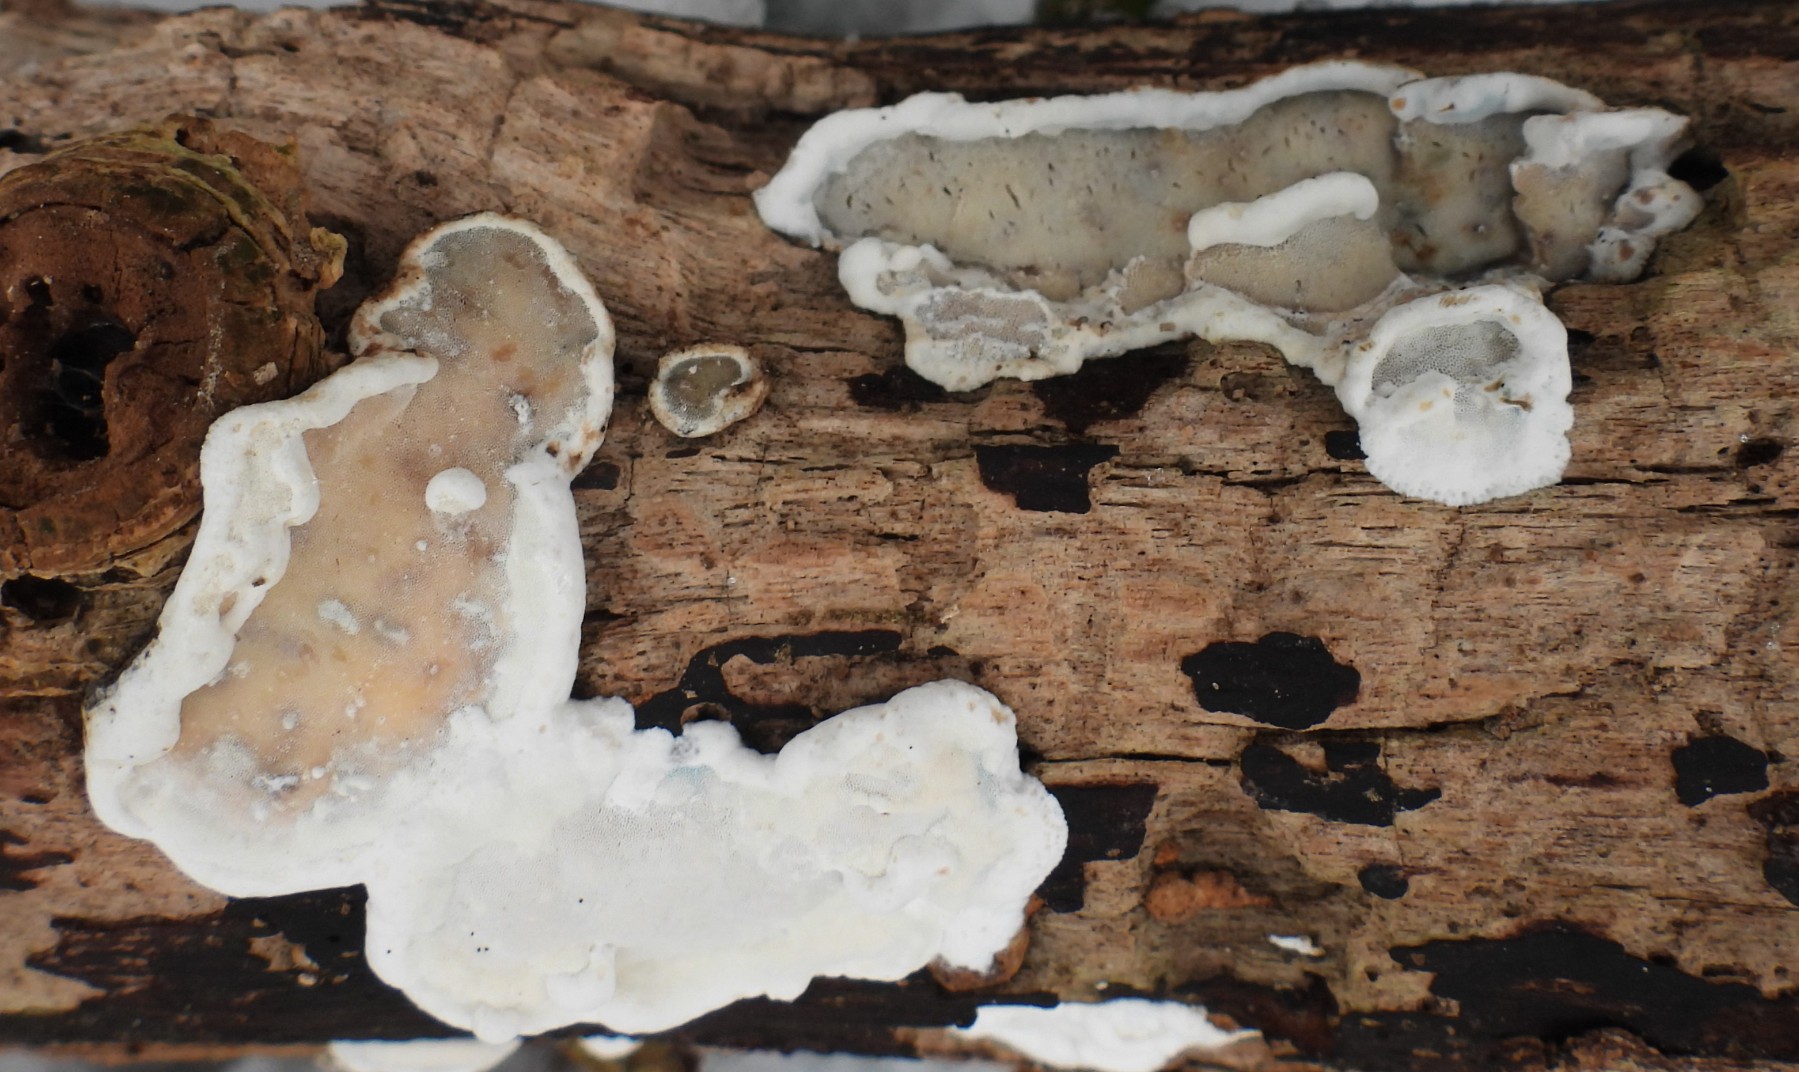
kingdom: Fungi
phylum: Basidiomycota
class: Agaricomycetes
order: Polyporales
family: Incrustoporiaceae
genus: Skeletocutis
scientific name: Skeletocutis nemoralis
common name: stor krystalporesvamp
